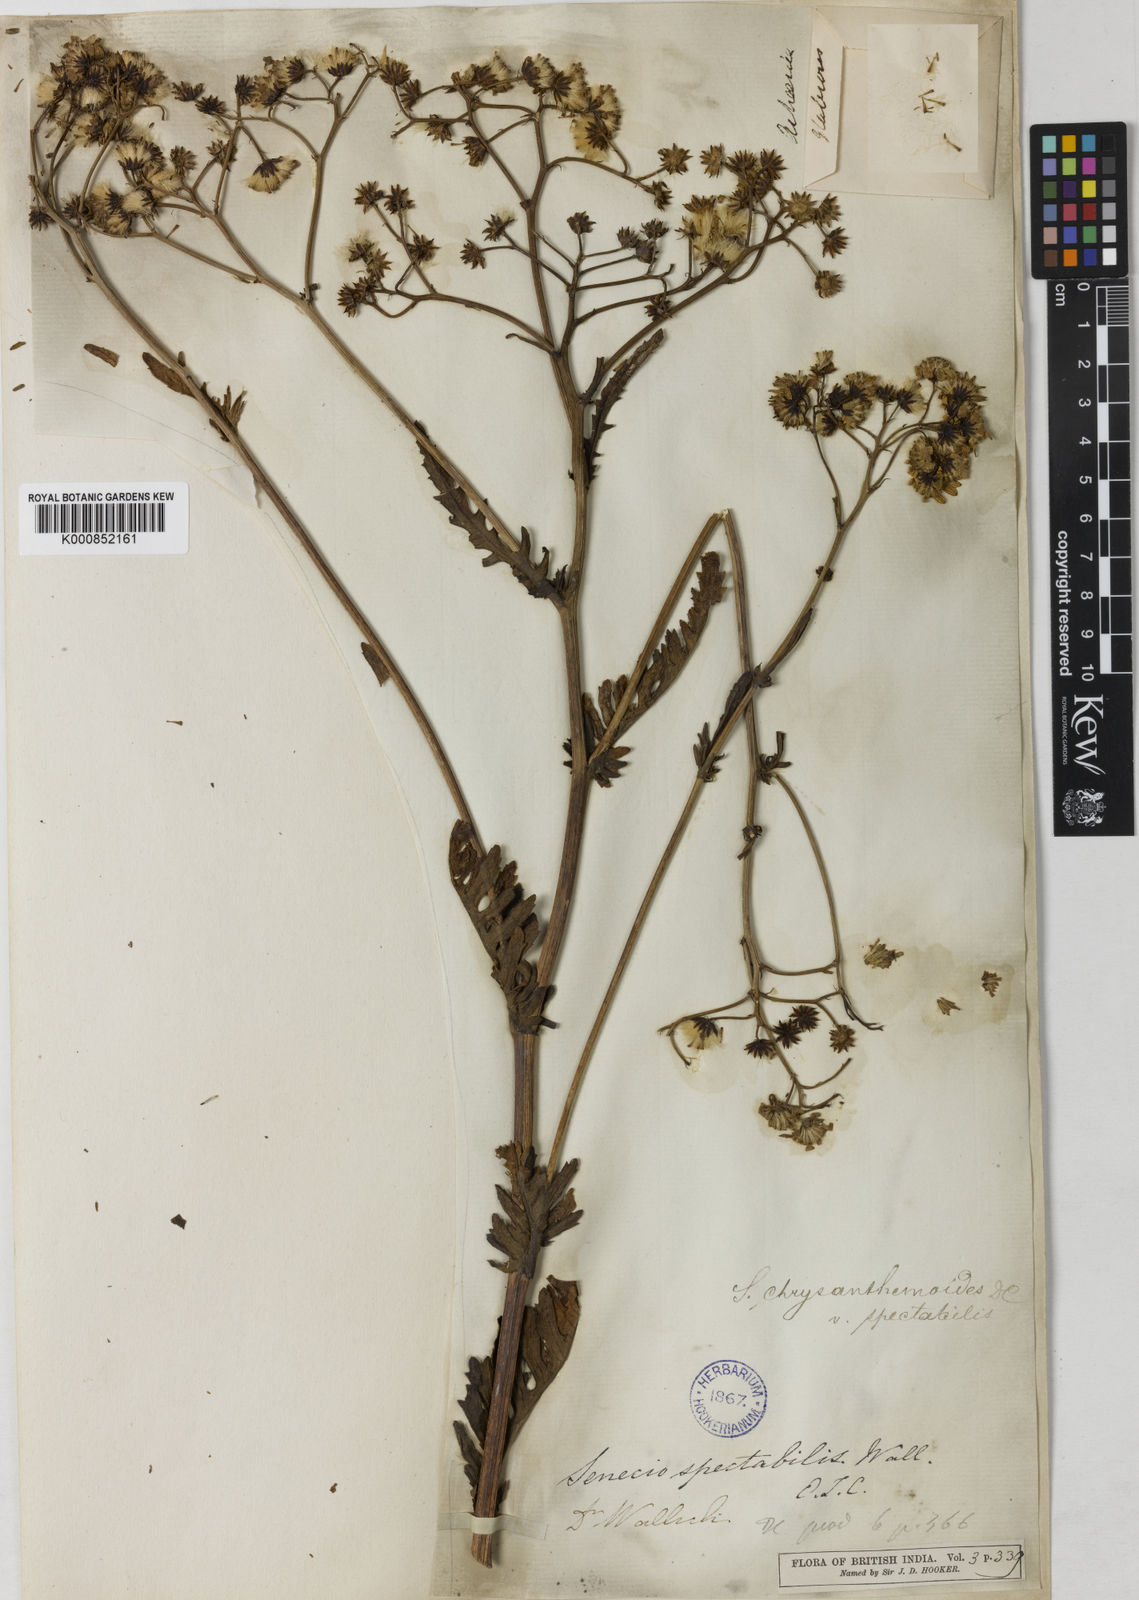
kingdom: Plantae
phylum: Tracheophyta
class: Magnoliopsida
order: Asterales
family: Asteraceae
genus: Jacobaea
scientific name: Jacobaea analoga
